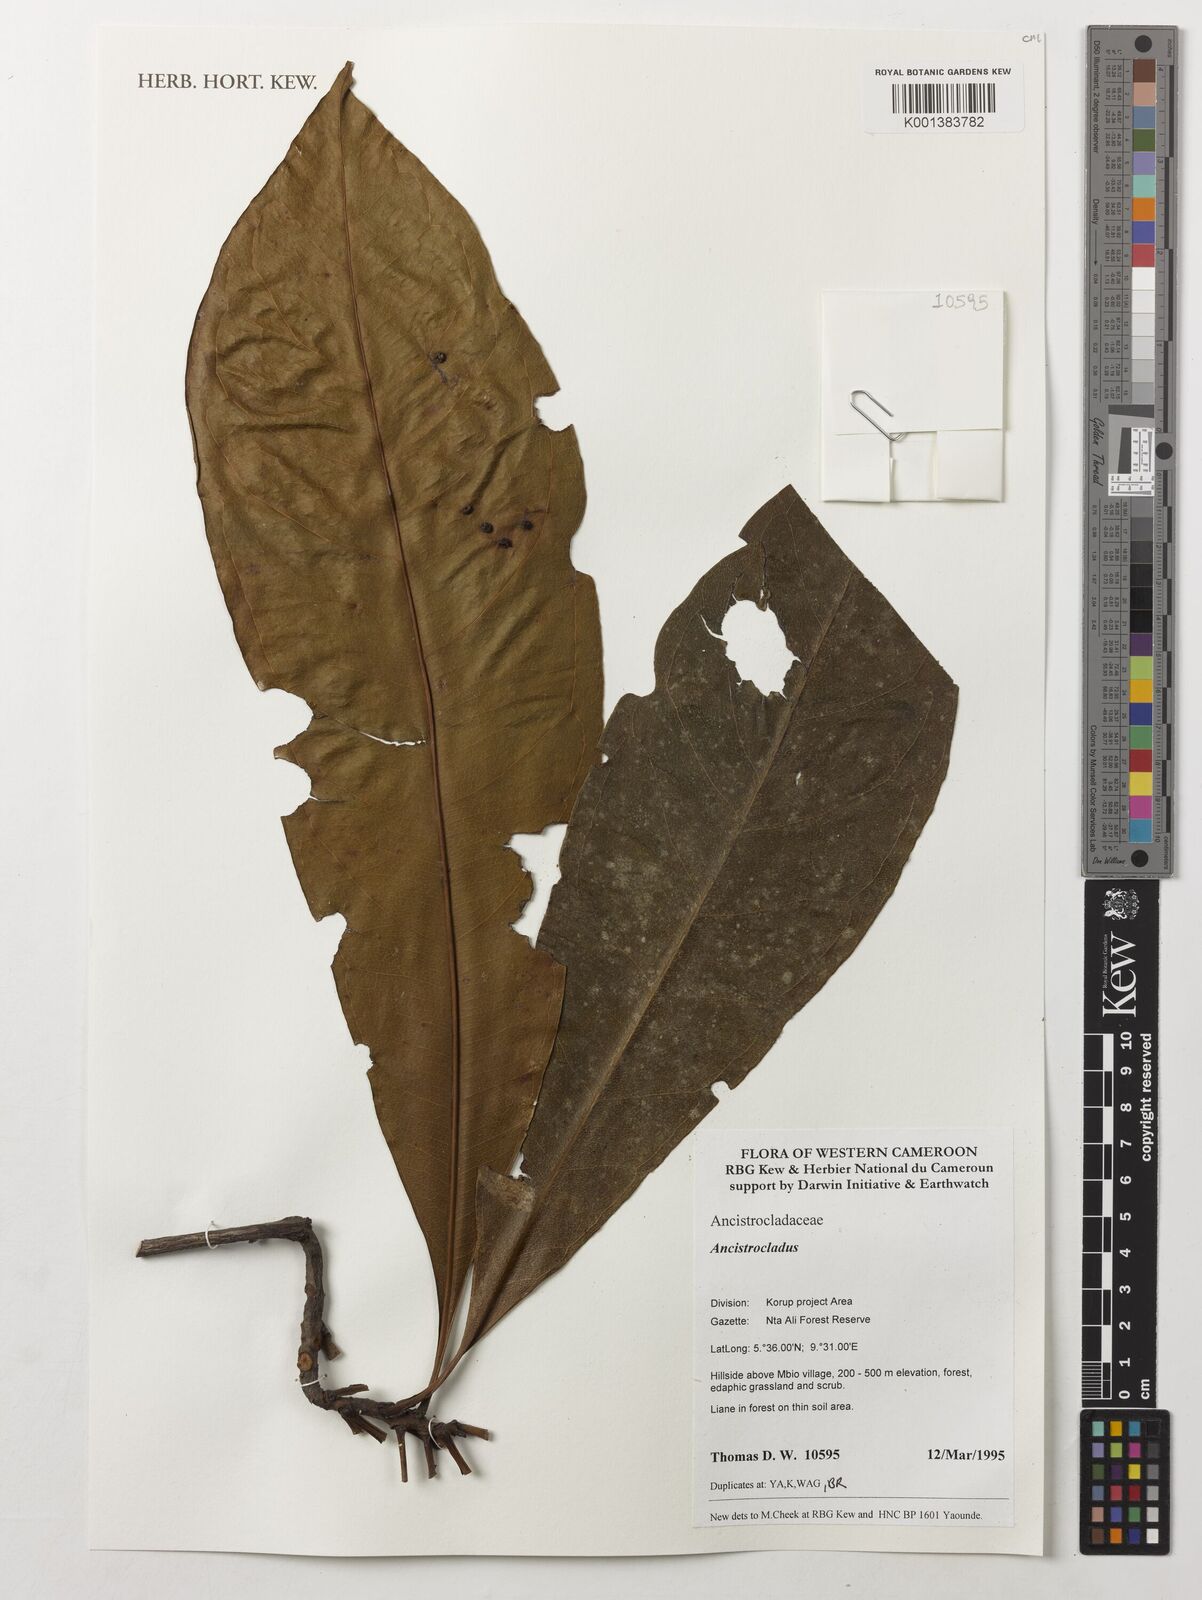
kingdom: Plantae
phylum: Tracheophyta
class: Magnoliopsida
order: Caryophyllales
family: Ancistrocladaceae
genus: Ancistrocladus
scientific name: Ancistrocladus
